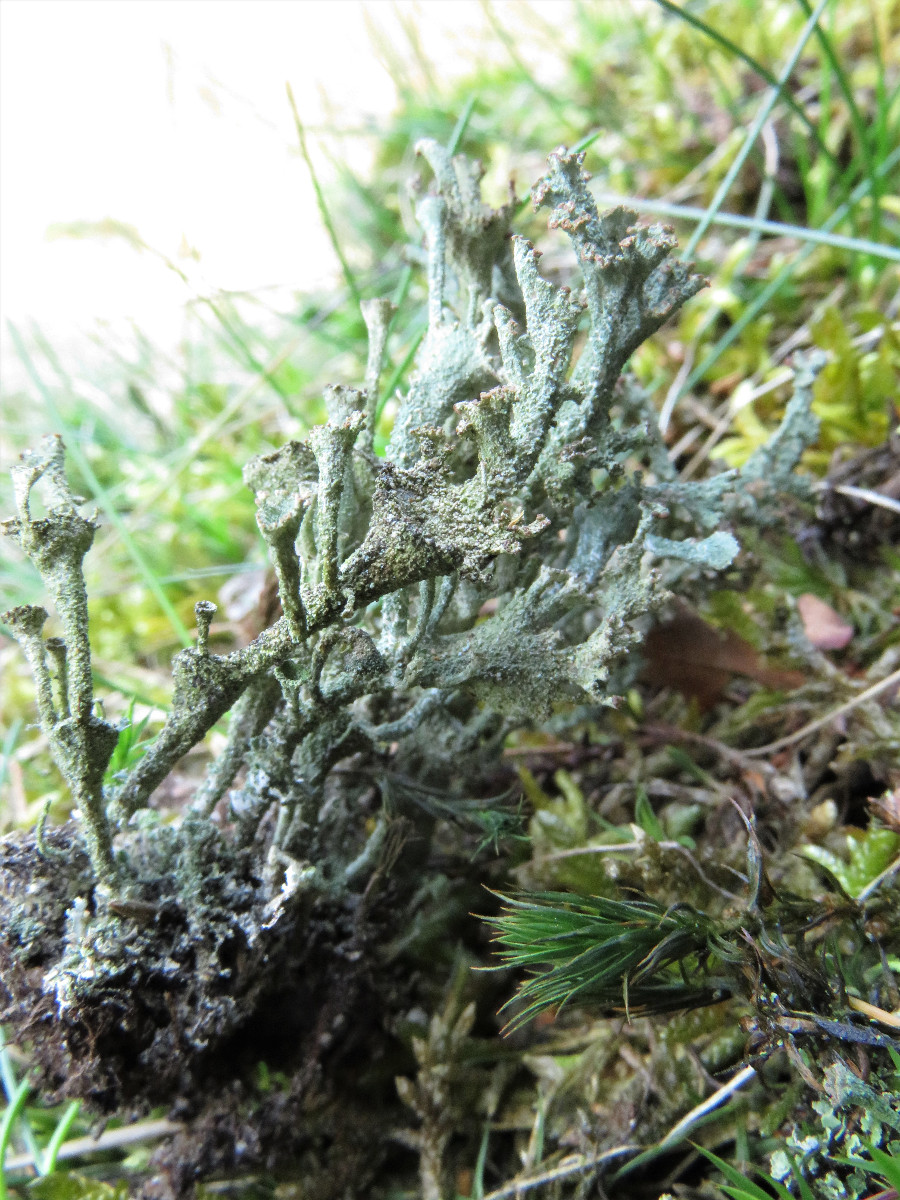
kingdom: Fungi
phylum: Ascomycota
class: Lecanoromycetes
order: Lecanorales
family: Cladoniaceae
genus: Cladonia
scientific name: Cladonia
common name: brungrøn bægerlav
